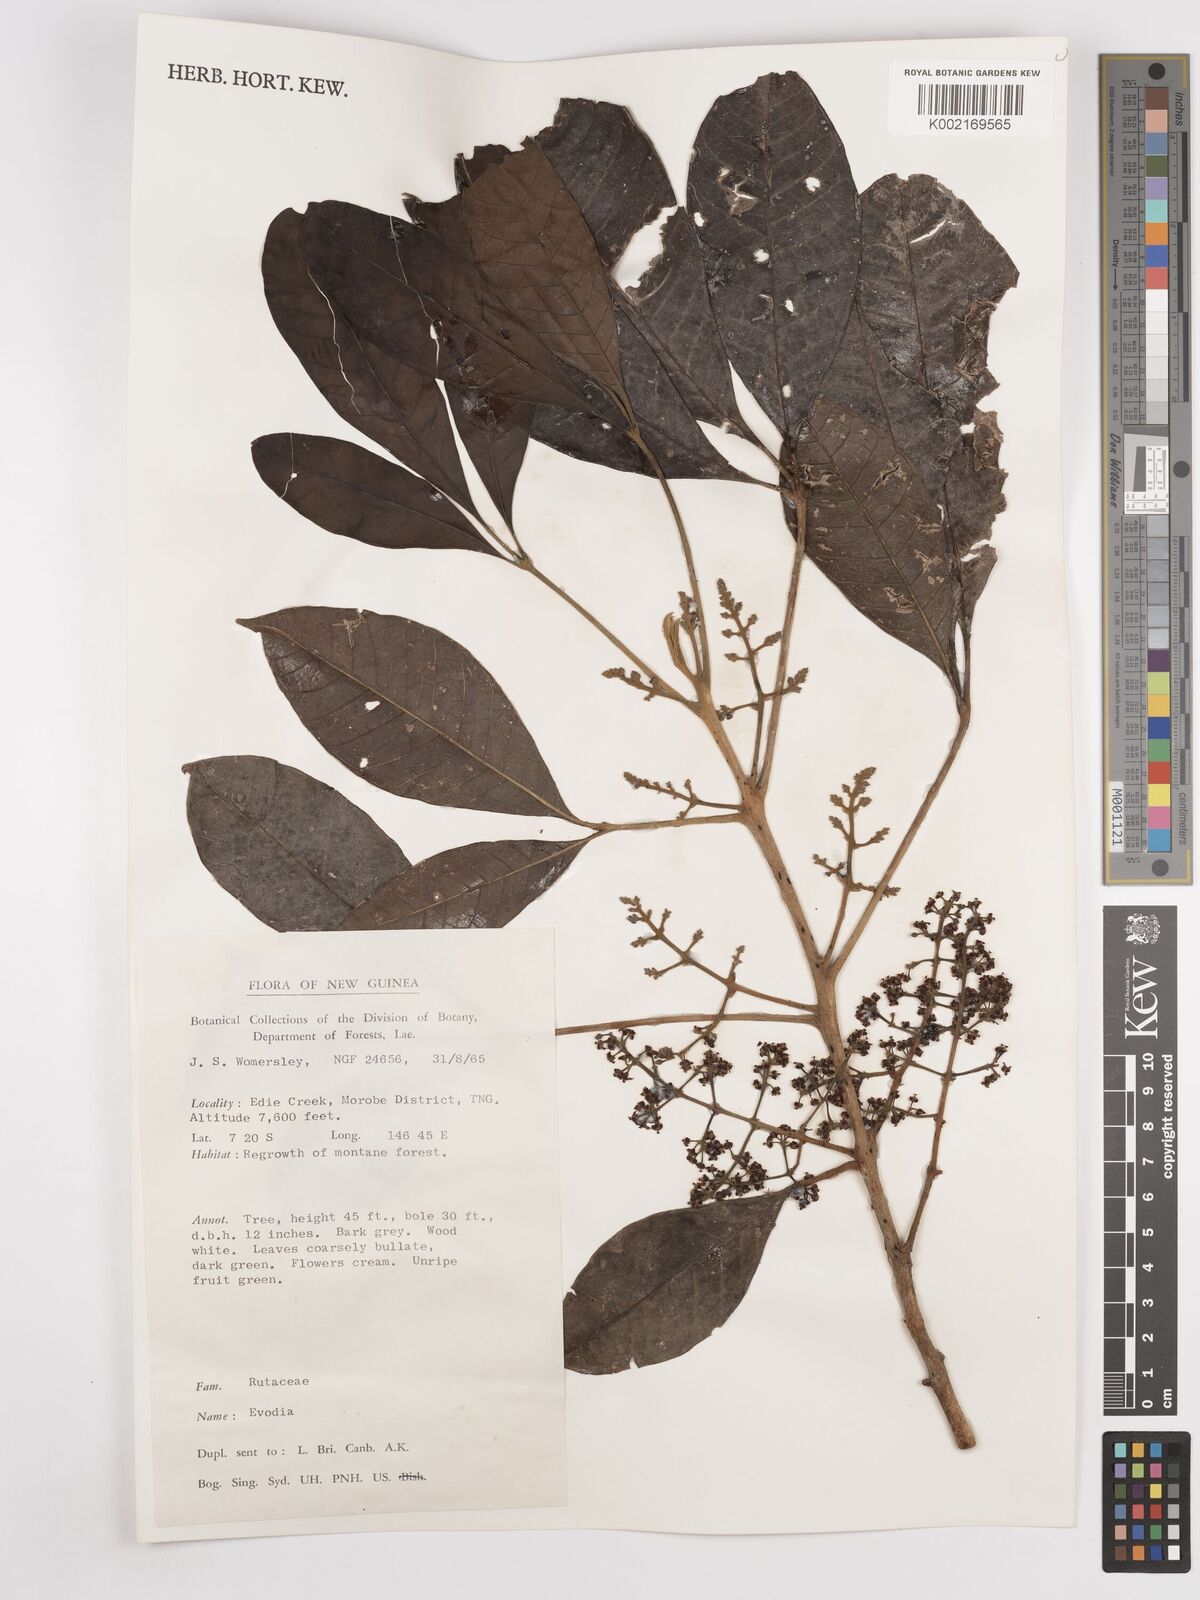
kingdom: Plantae
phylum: Tracheophyta
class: Magnoliopsida
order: Sapindales
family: Rutaceae
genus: Euodia
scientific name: Euodia
